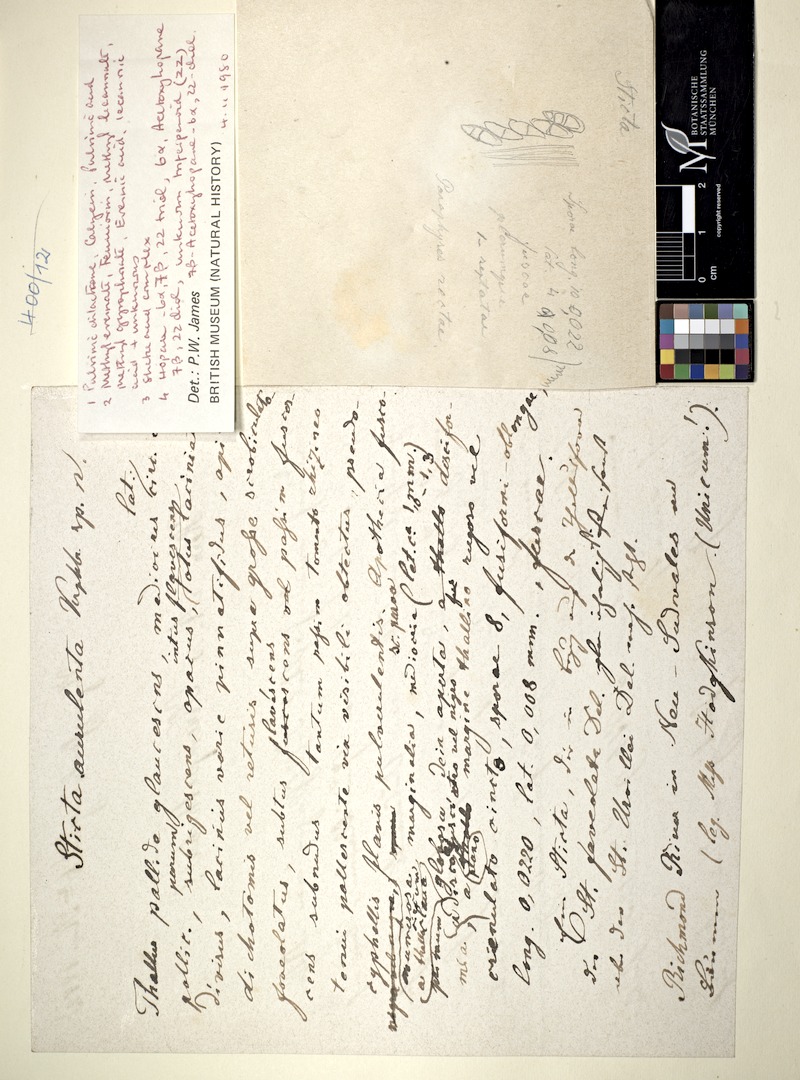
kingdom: Fungi
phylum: Ascomycota
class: Lecanoromycetes
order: Peltigerales
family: Lobariaceae
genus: Pseudocyphellaria
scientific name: Pseudocyphellaria glaucescens
